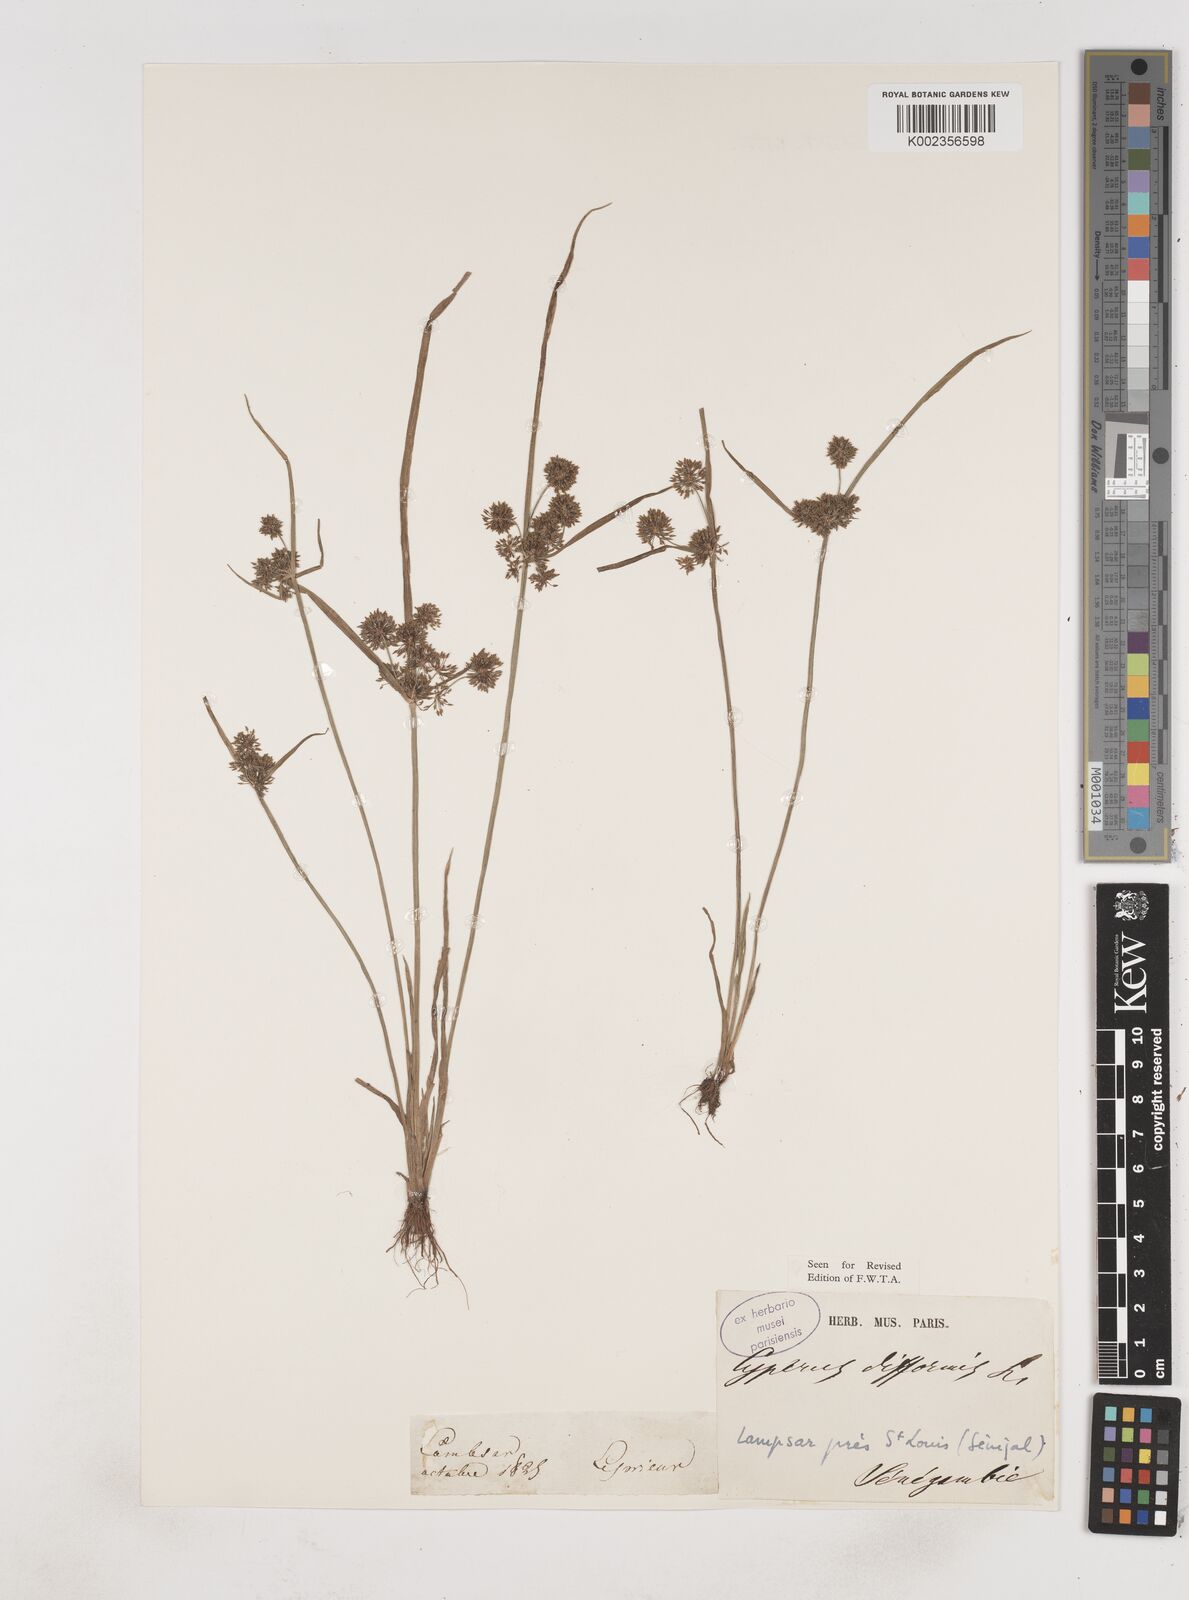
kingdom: Plantae
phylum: Tracheophyta
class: Liliopsida
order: Poales
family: Cyperaceae
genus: Cyperus
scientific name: Cyperus difformis
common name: Variable flatsedge
